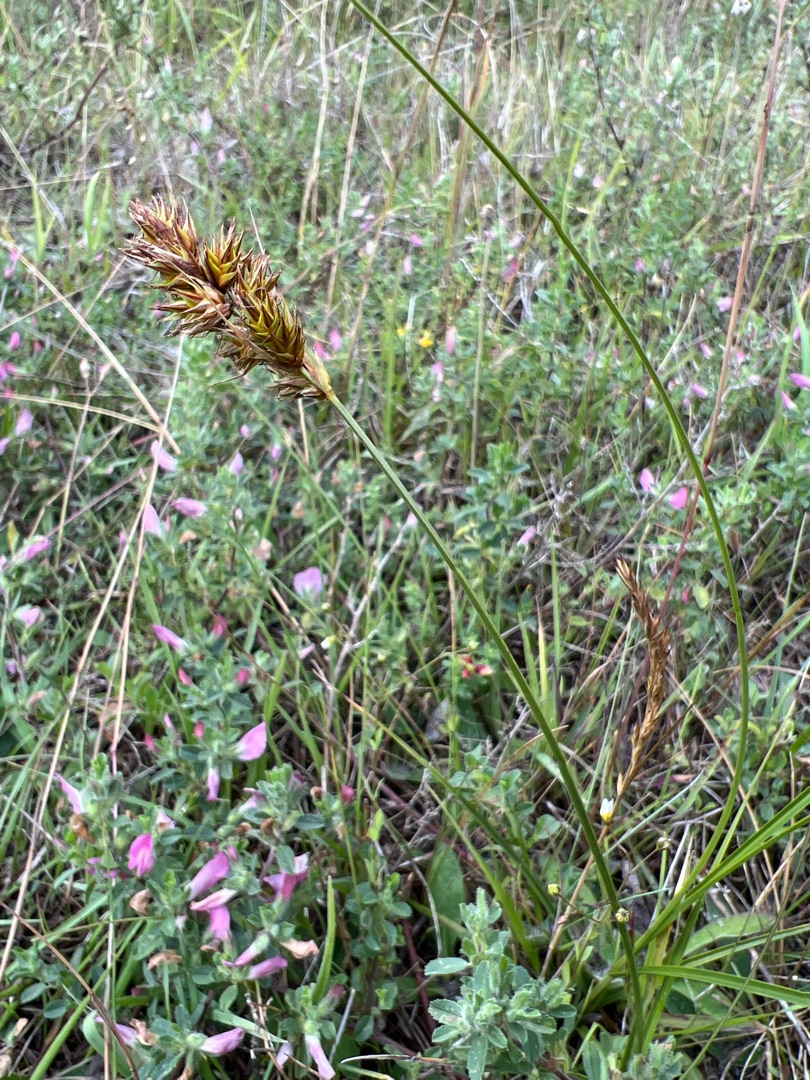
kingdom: Plantae
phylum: Tracheophyta
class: Liliopsida
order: Poales
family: Cyperaceae
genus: Carex
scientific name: Carex arenaria
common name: Sand-star
